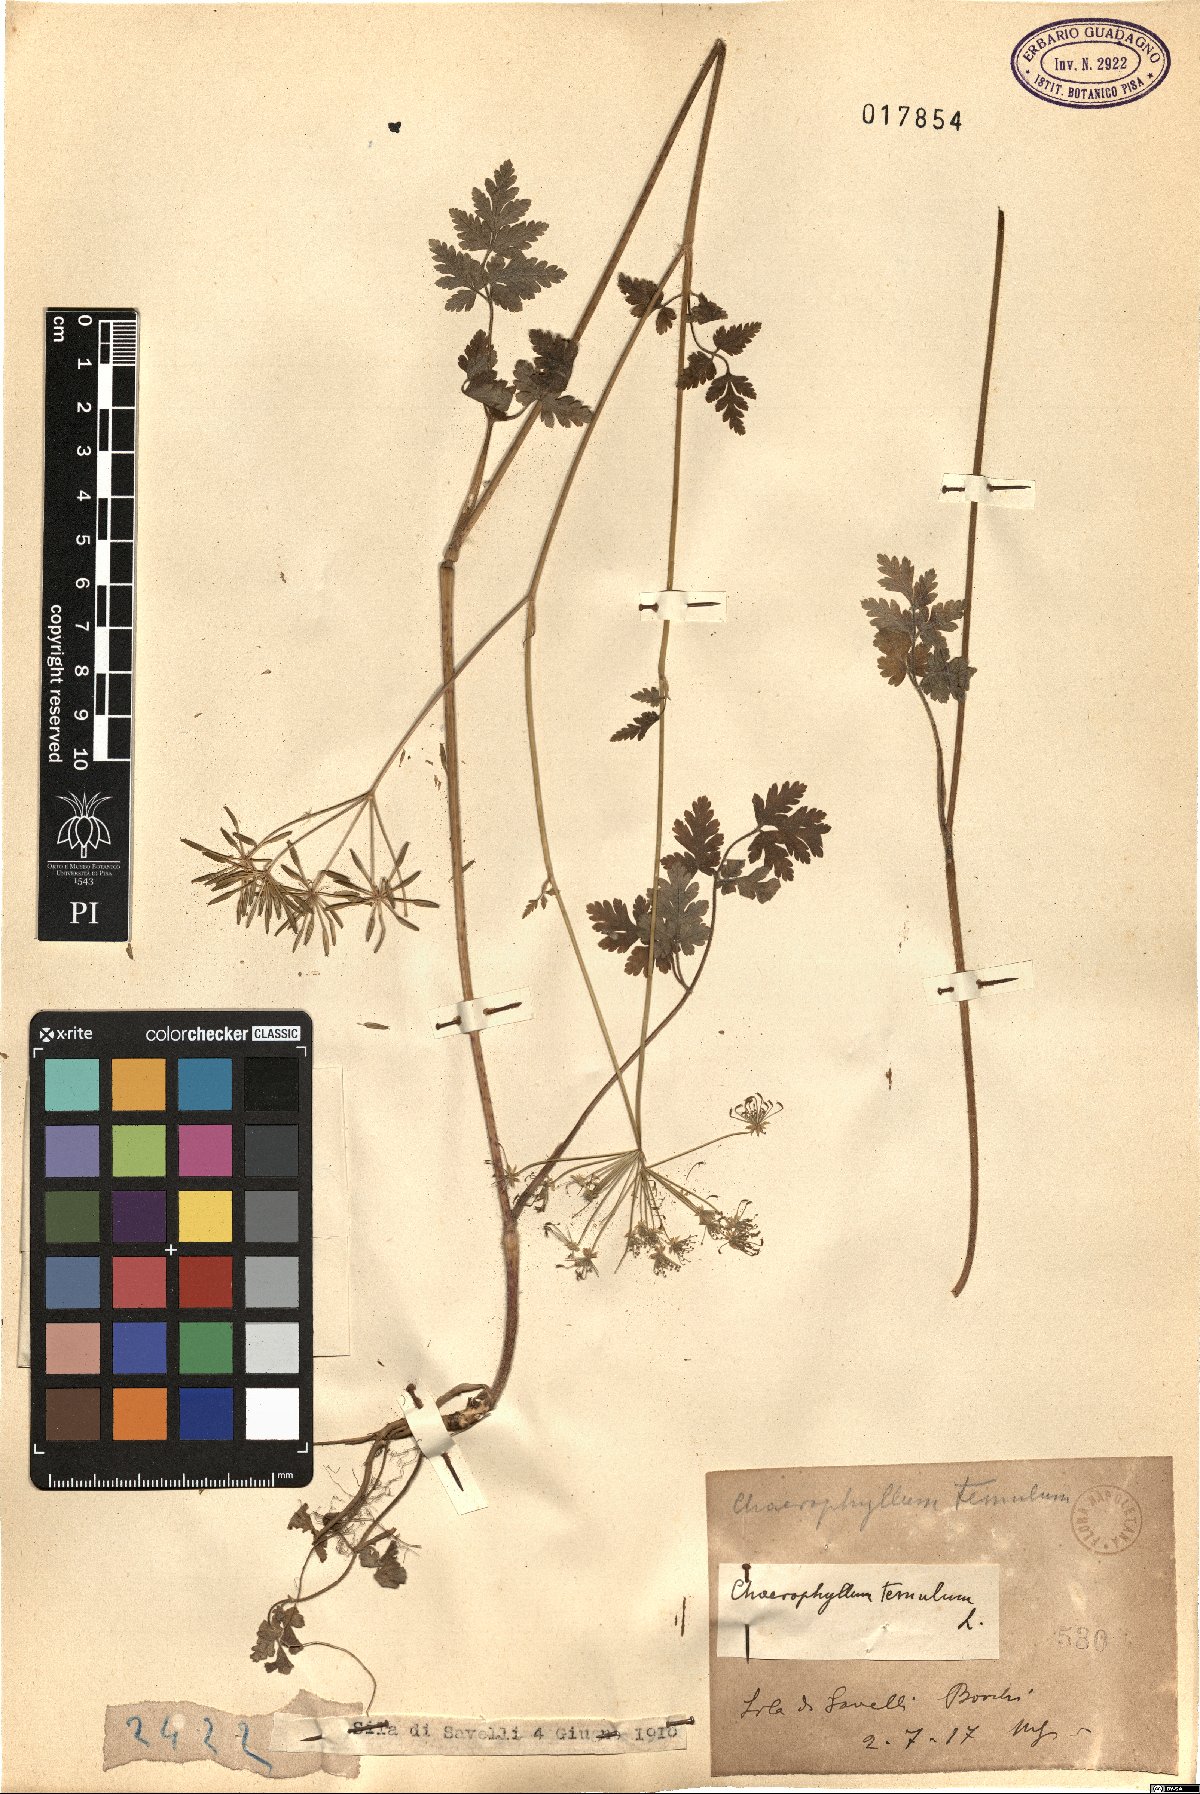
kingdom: Plantae
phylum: Tracheophyta
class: Magnoliopsida
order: Apiales
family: Apiaceae
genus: Chaerophyllum
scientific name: Chaerophyllum temulum
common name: Rough chervil
